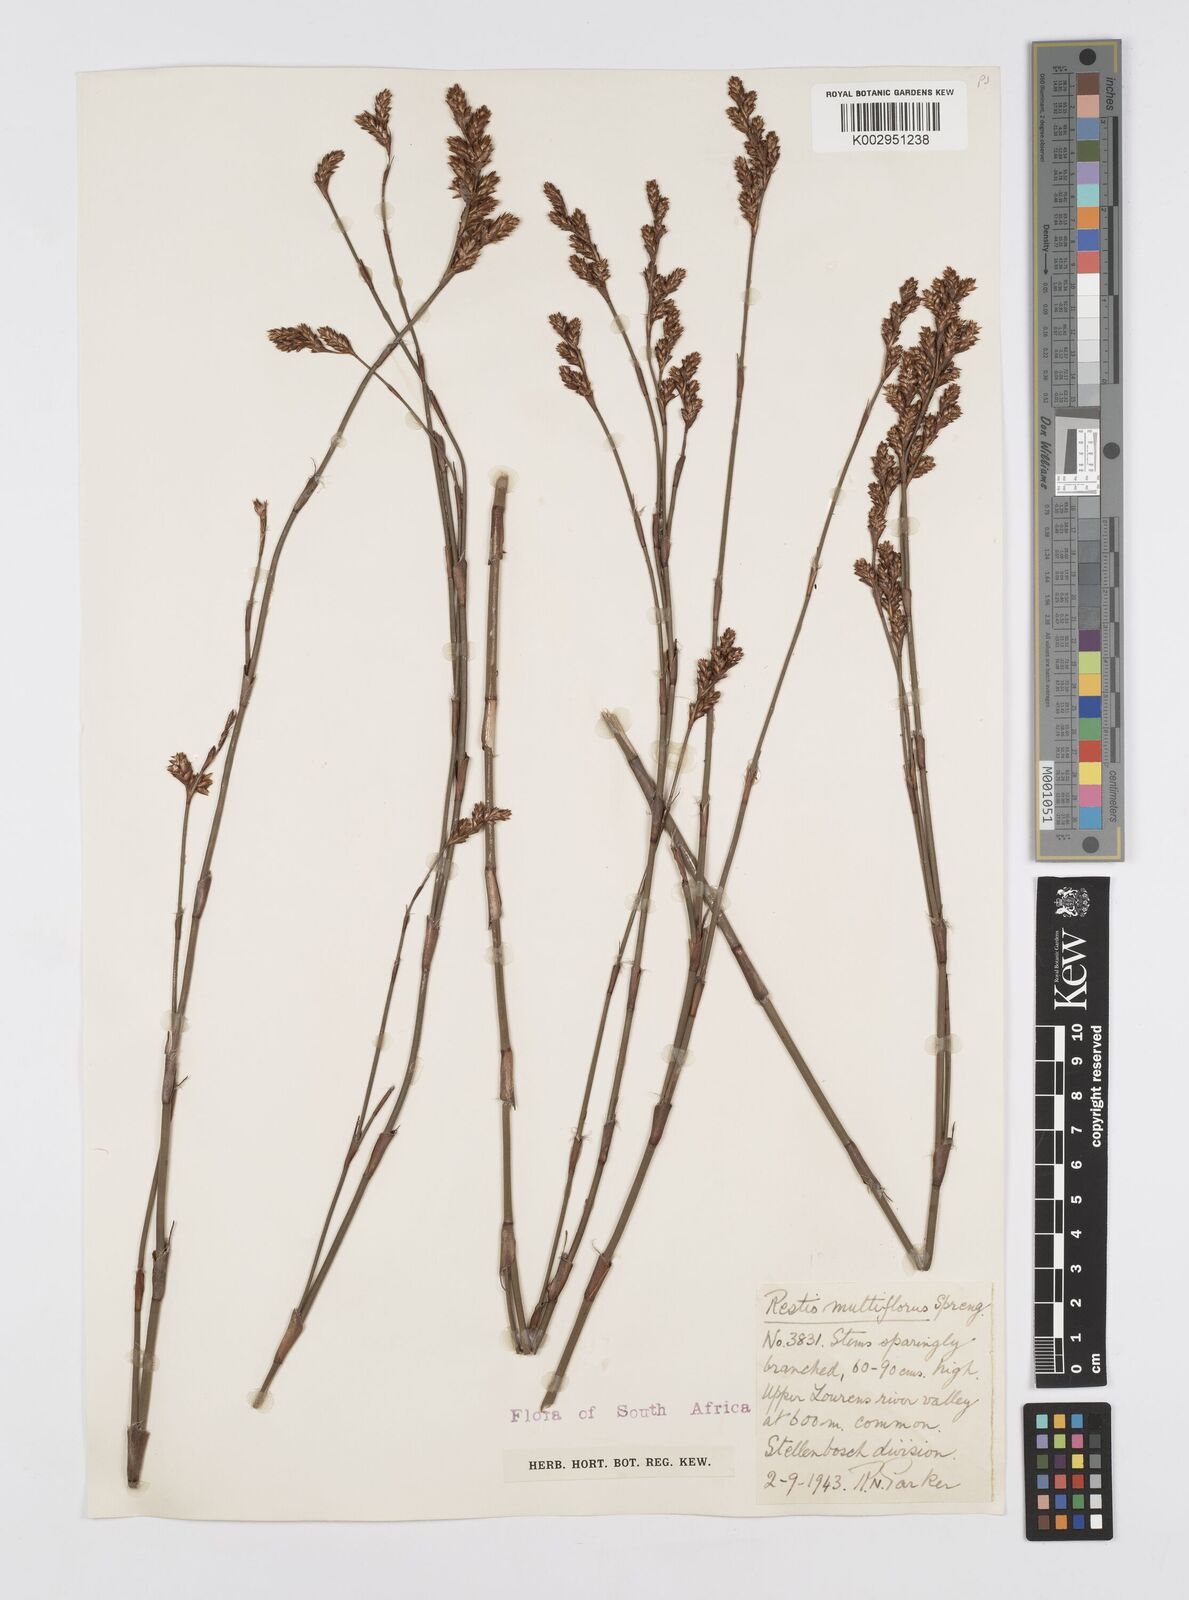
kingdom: Plantae
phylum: Tracheophyta
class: Liliopsida
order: Poales
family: Restionaceae
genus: Restio
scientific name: Restio multiflorus
